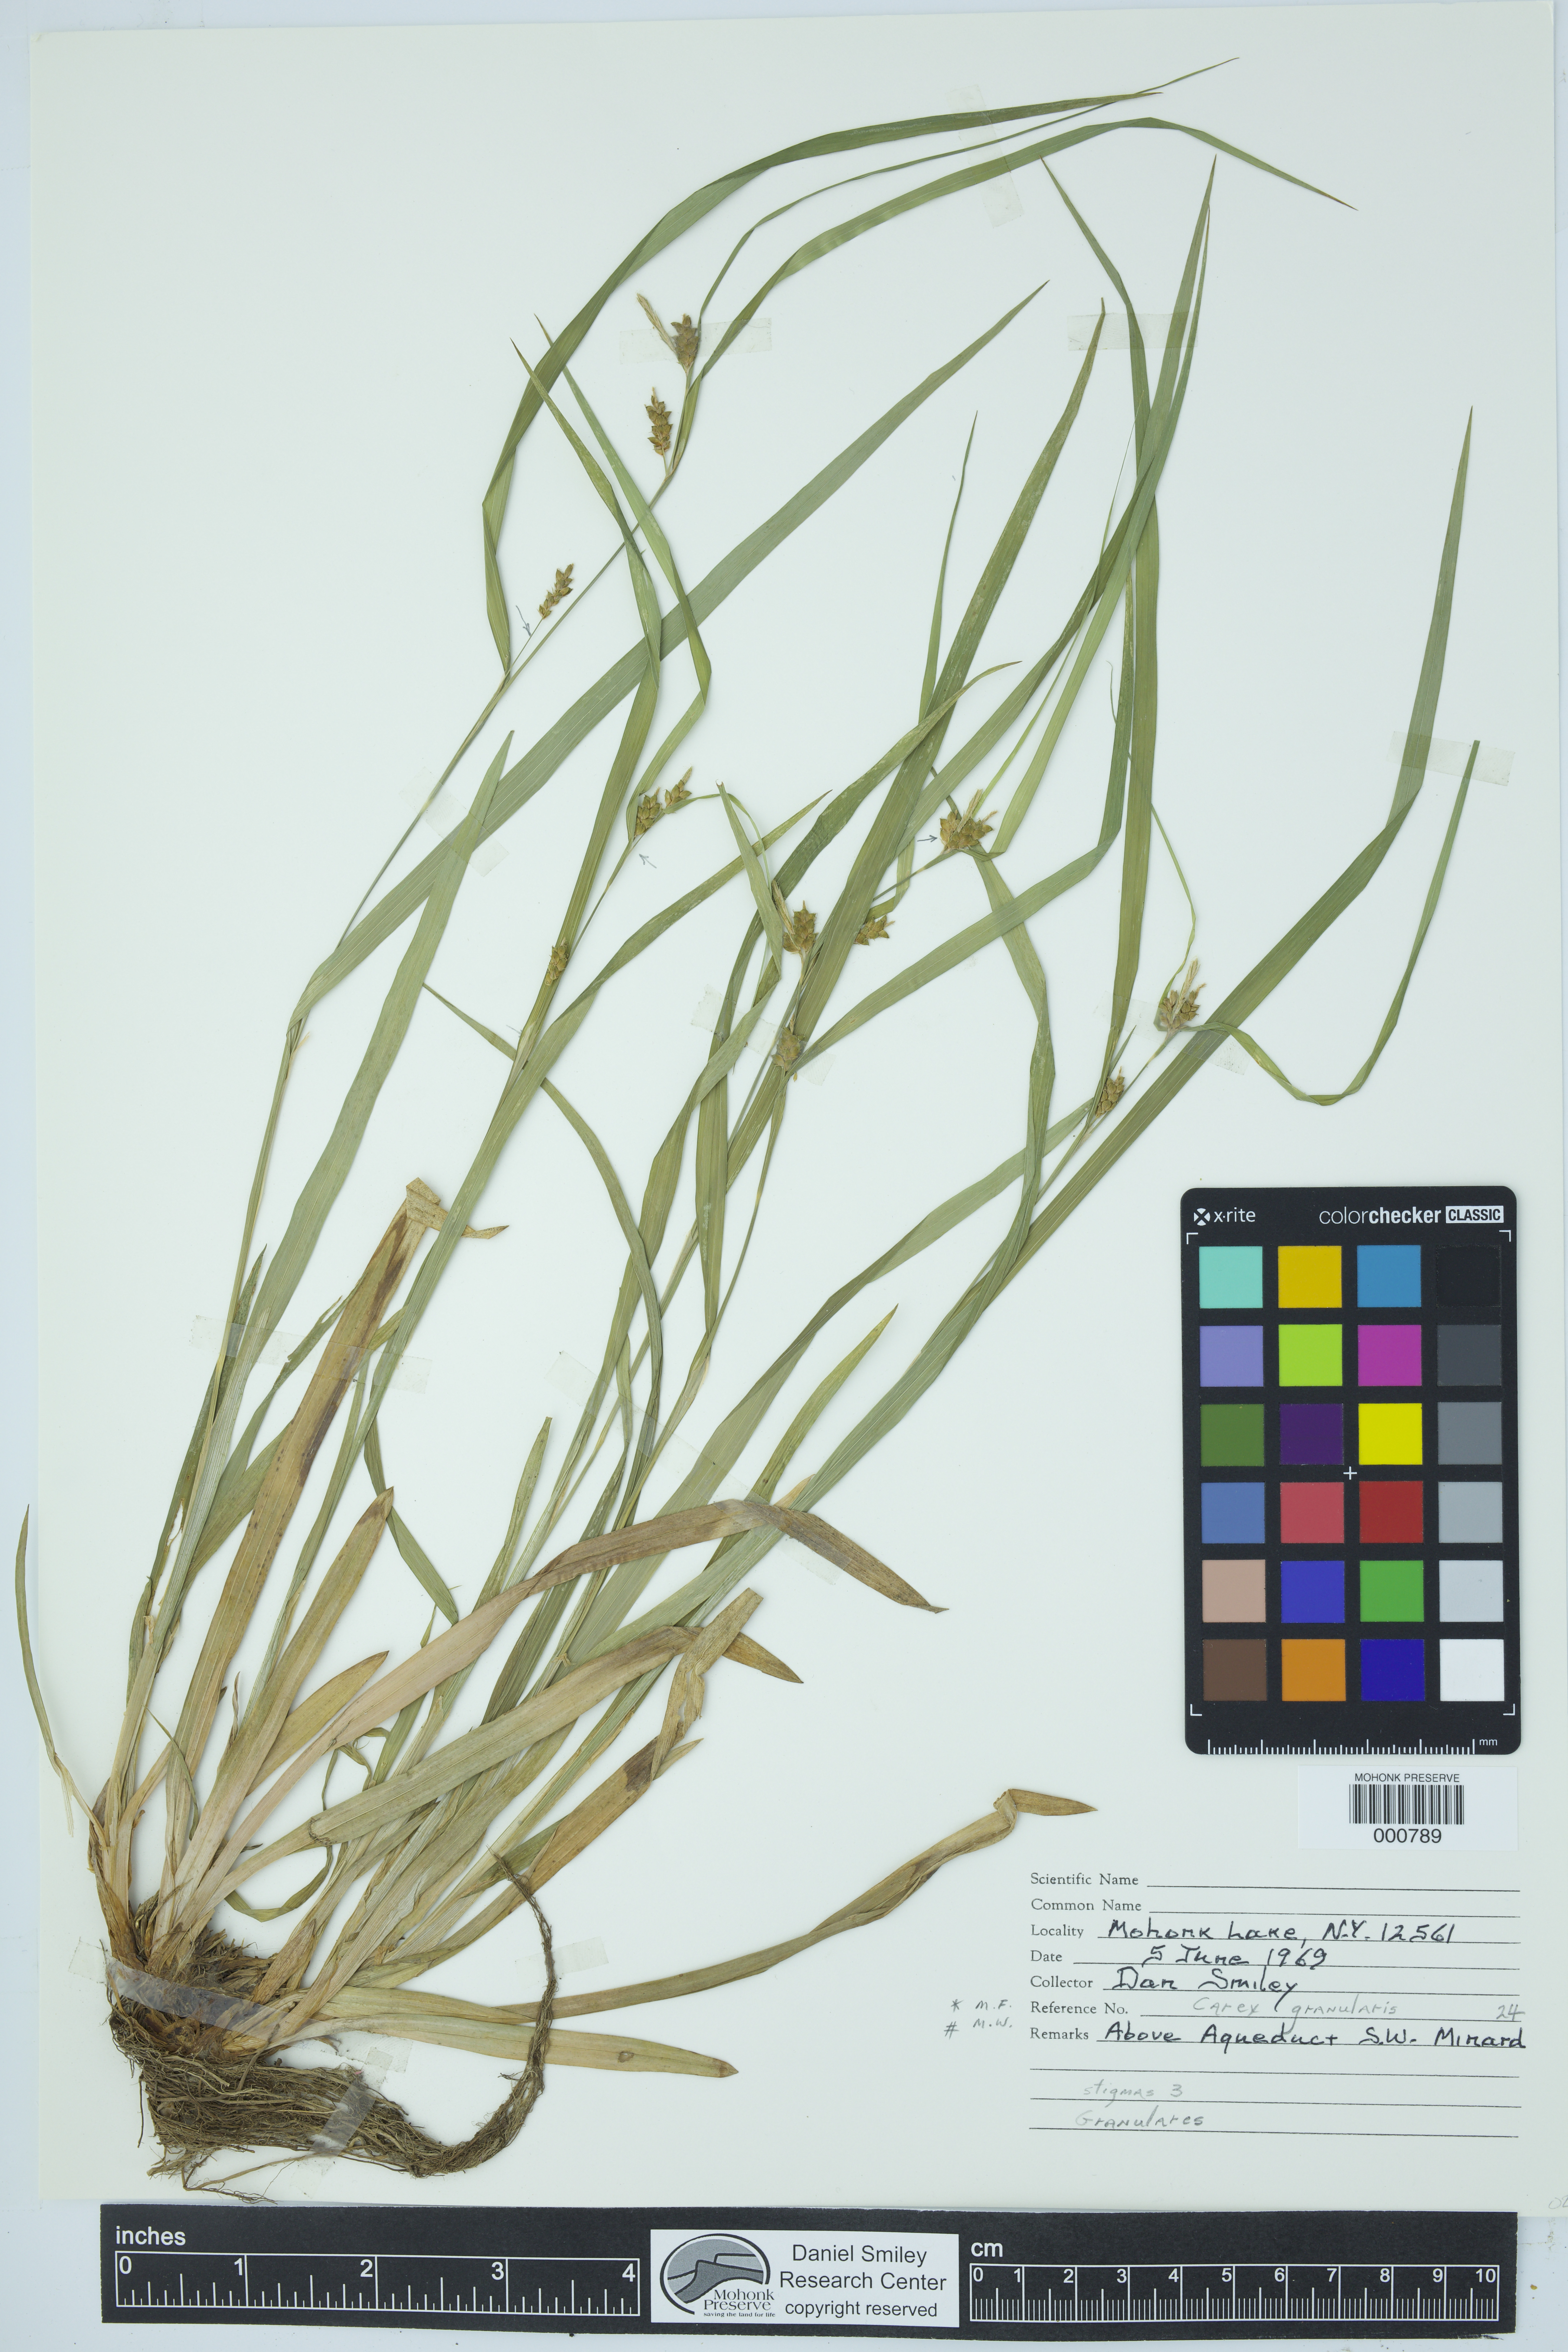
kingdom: Plantae
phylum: Tracheophyta
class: Liliopsida
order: Poales
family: Cyperaceae
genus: Carex
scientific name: Carex granularis
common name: Granular sedge
